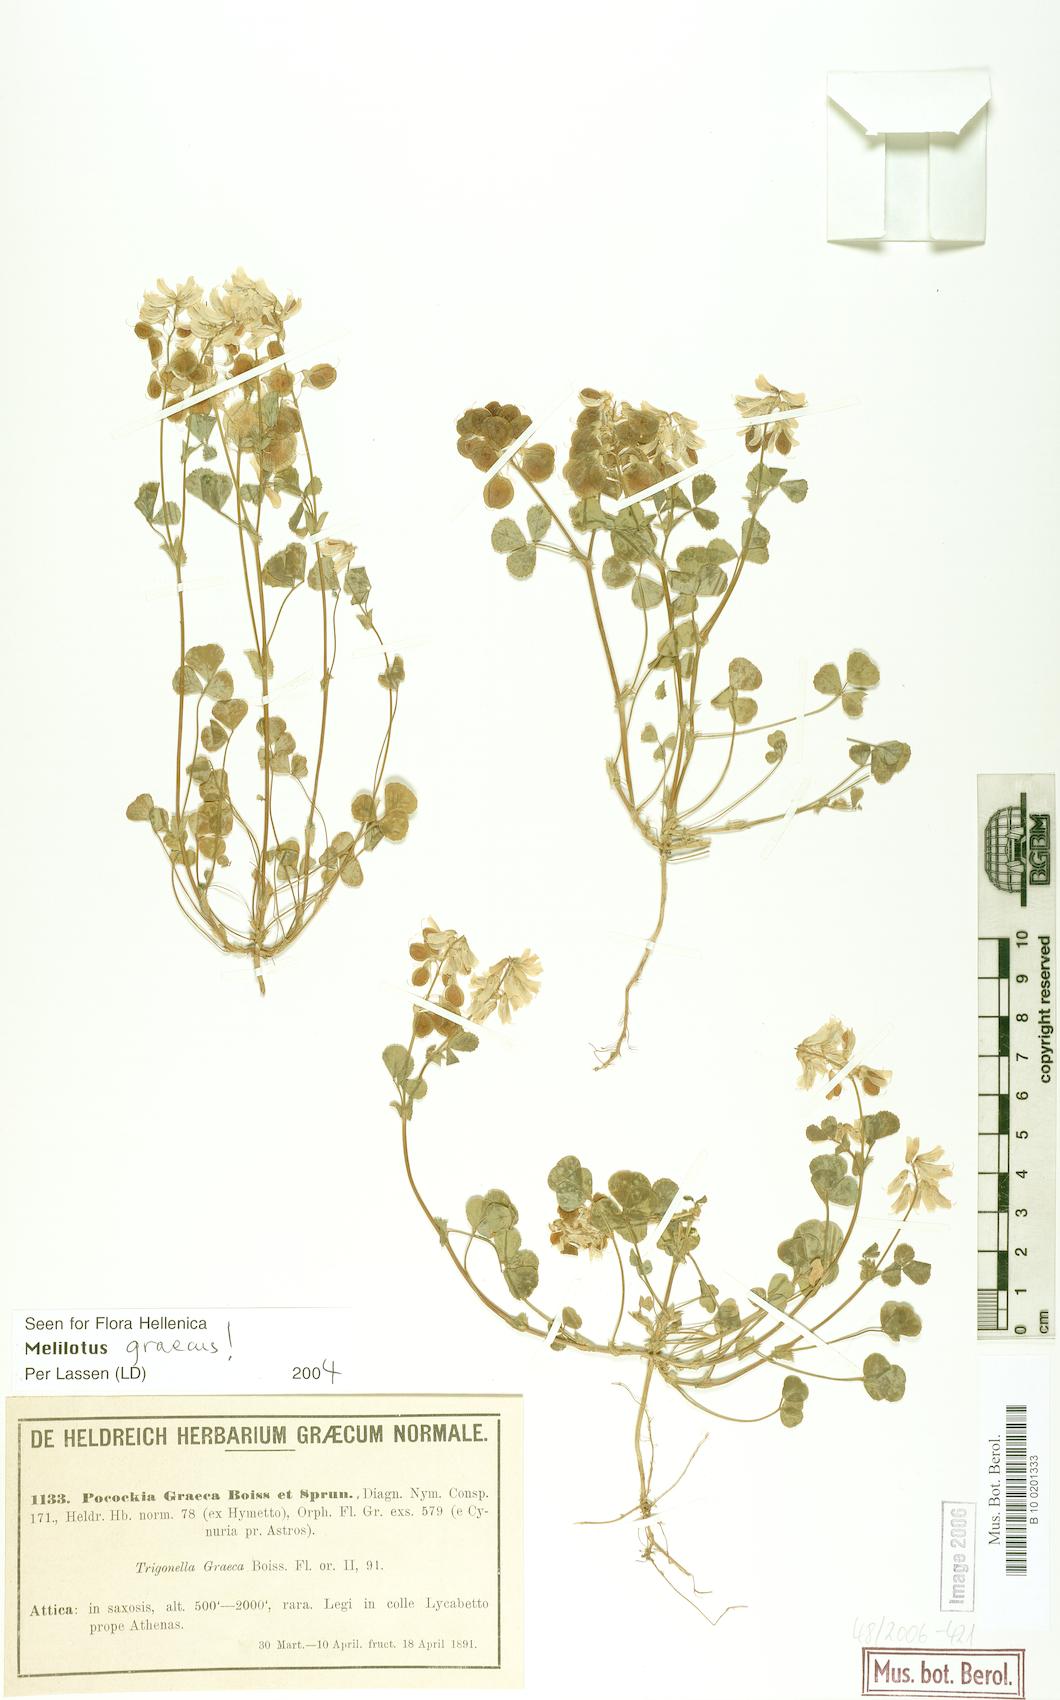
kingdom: Plantae
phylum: Tracheophyta
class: Magnoliopsida
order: Fabales
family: Fabaceae
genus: Trigonella
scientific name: Trigonella graeca
